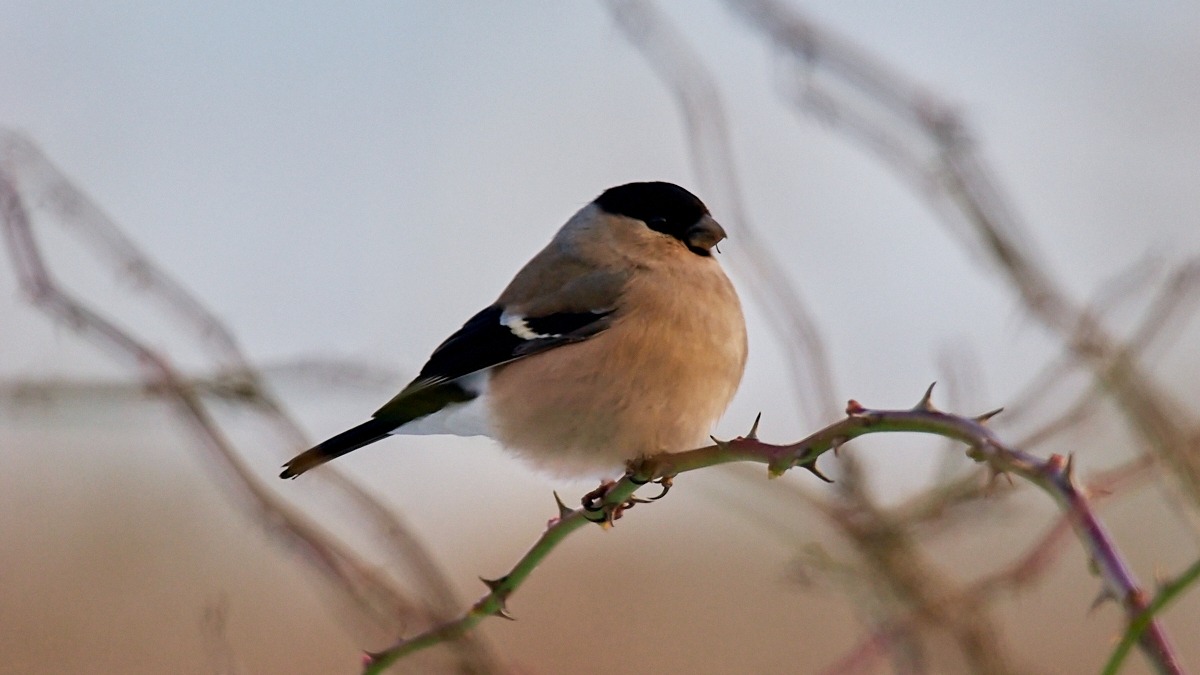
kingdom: Animalia
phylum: Chordata
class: Aves
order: Passeriformes
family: Fringillidae
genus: Pyrrhula
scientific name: Pyrrhula pyrrhula
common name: Dompap
